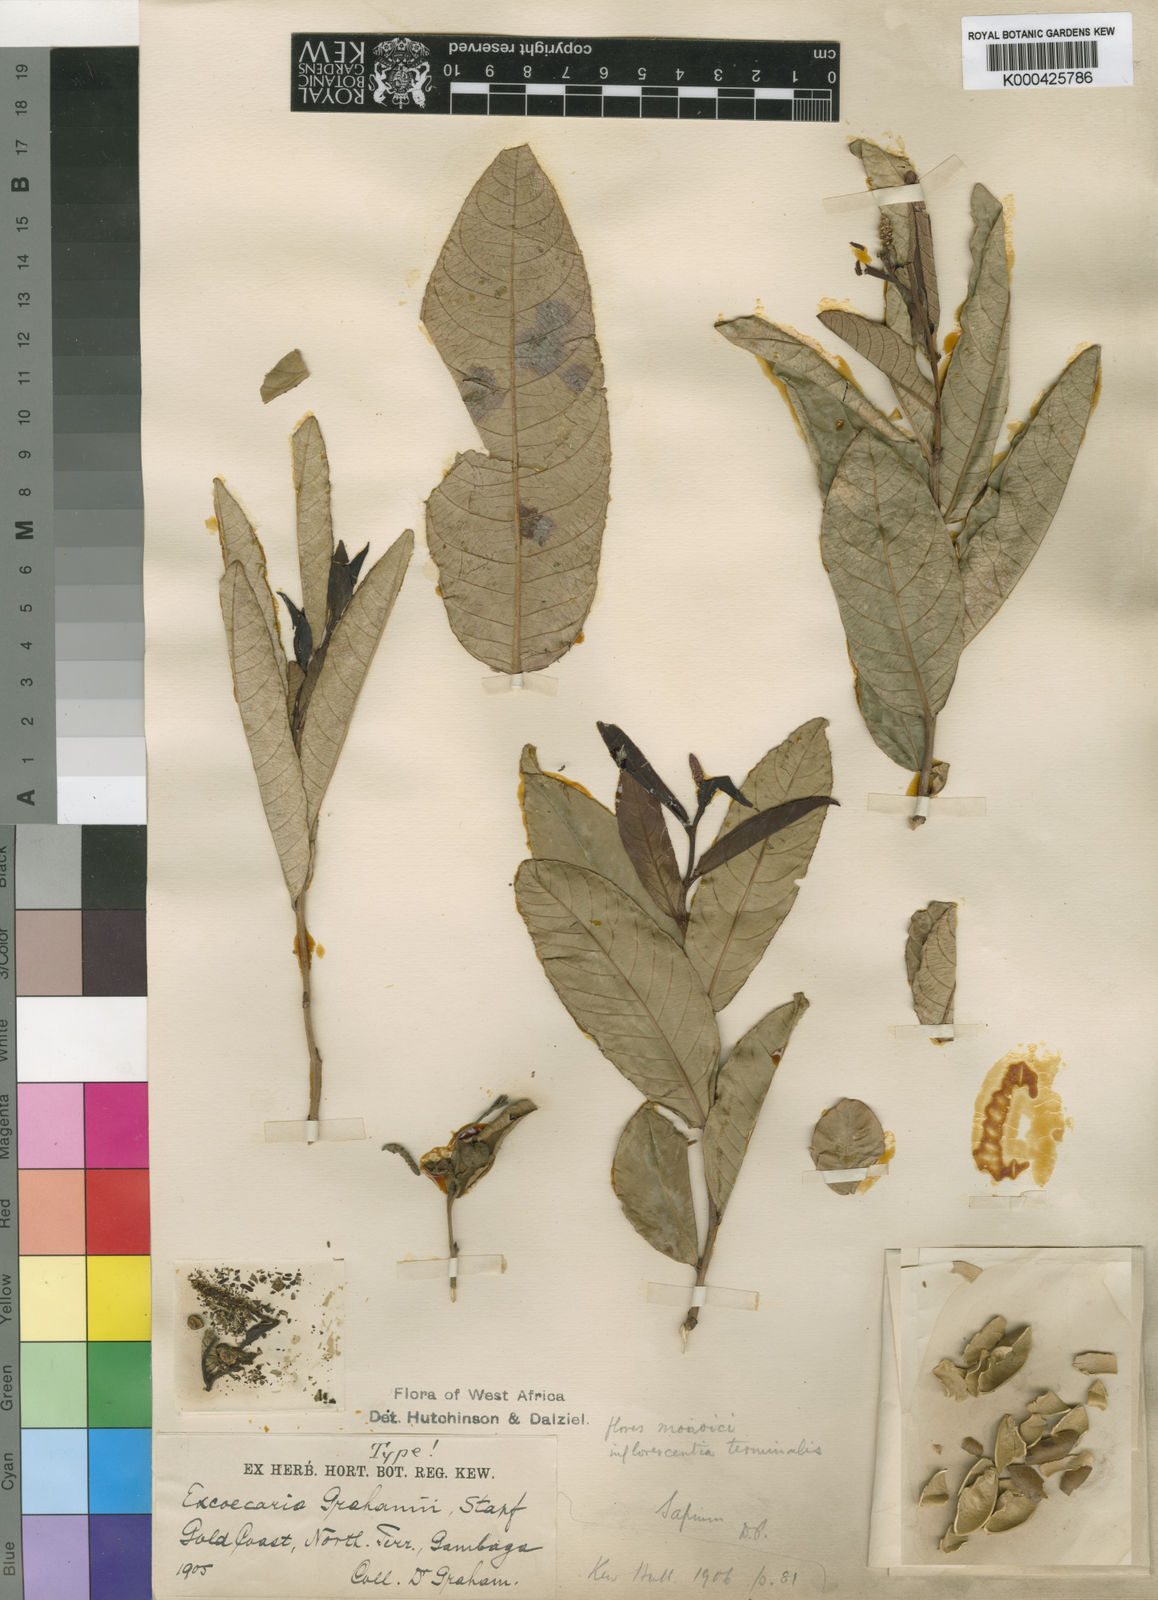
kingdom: Plantae
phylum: Tracheophyta
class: Magnoliopsida
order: Malpighiales
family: Euphorbiaceae
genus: Excoecaria
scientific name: Excoecaria grahamii
